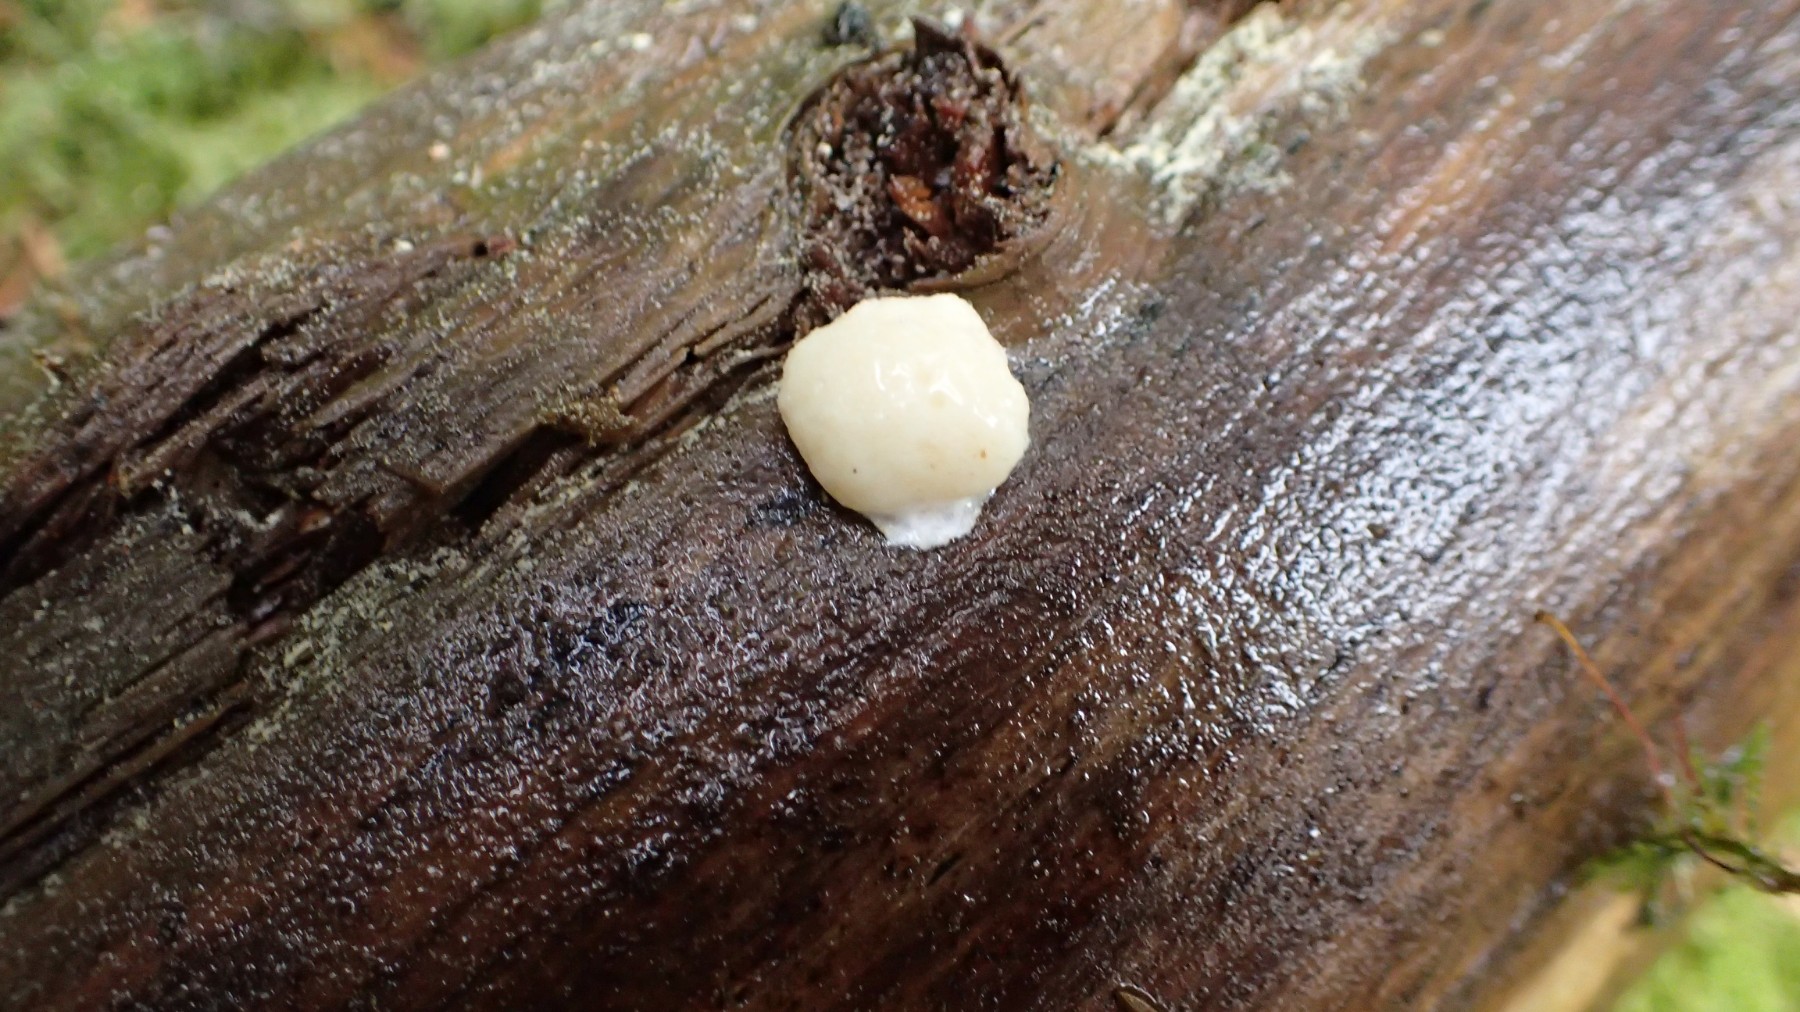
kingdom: Protozoa
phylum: Mycetozoa
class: Myxomycetes
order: Cribrariales
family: Tubiferaceae
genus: Reticularia
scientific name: Reticularia lycoperdon
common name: skinnende støvpude
